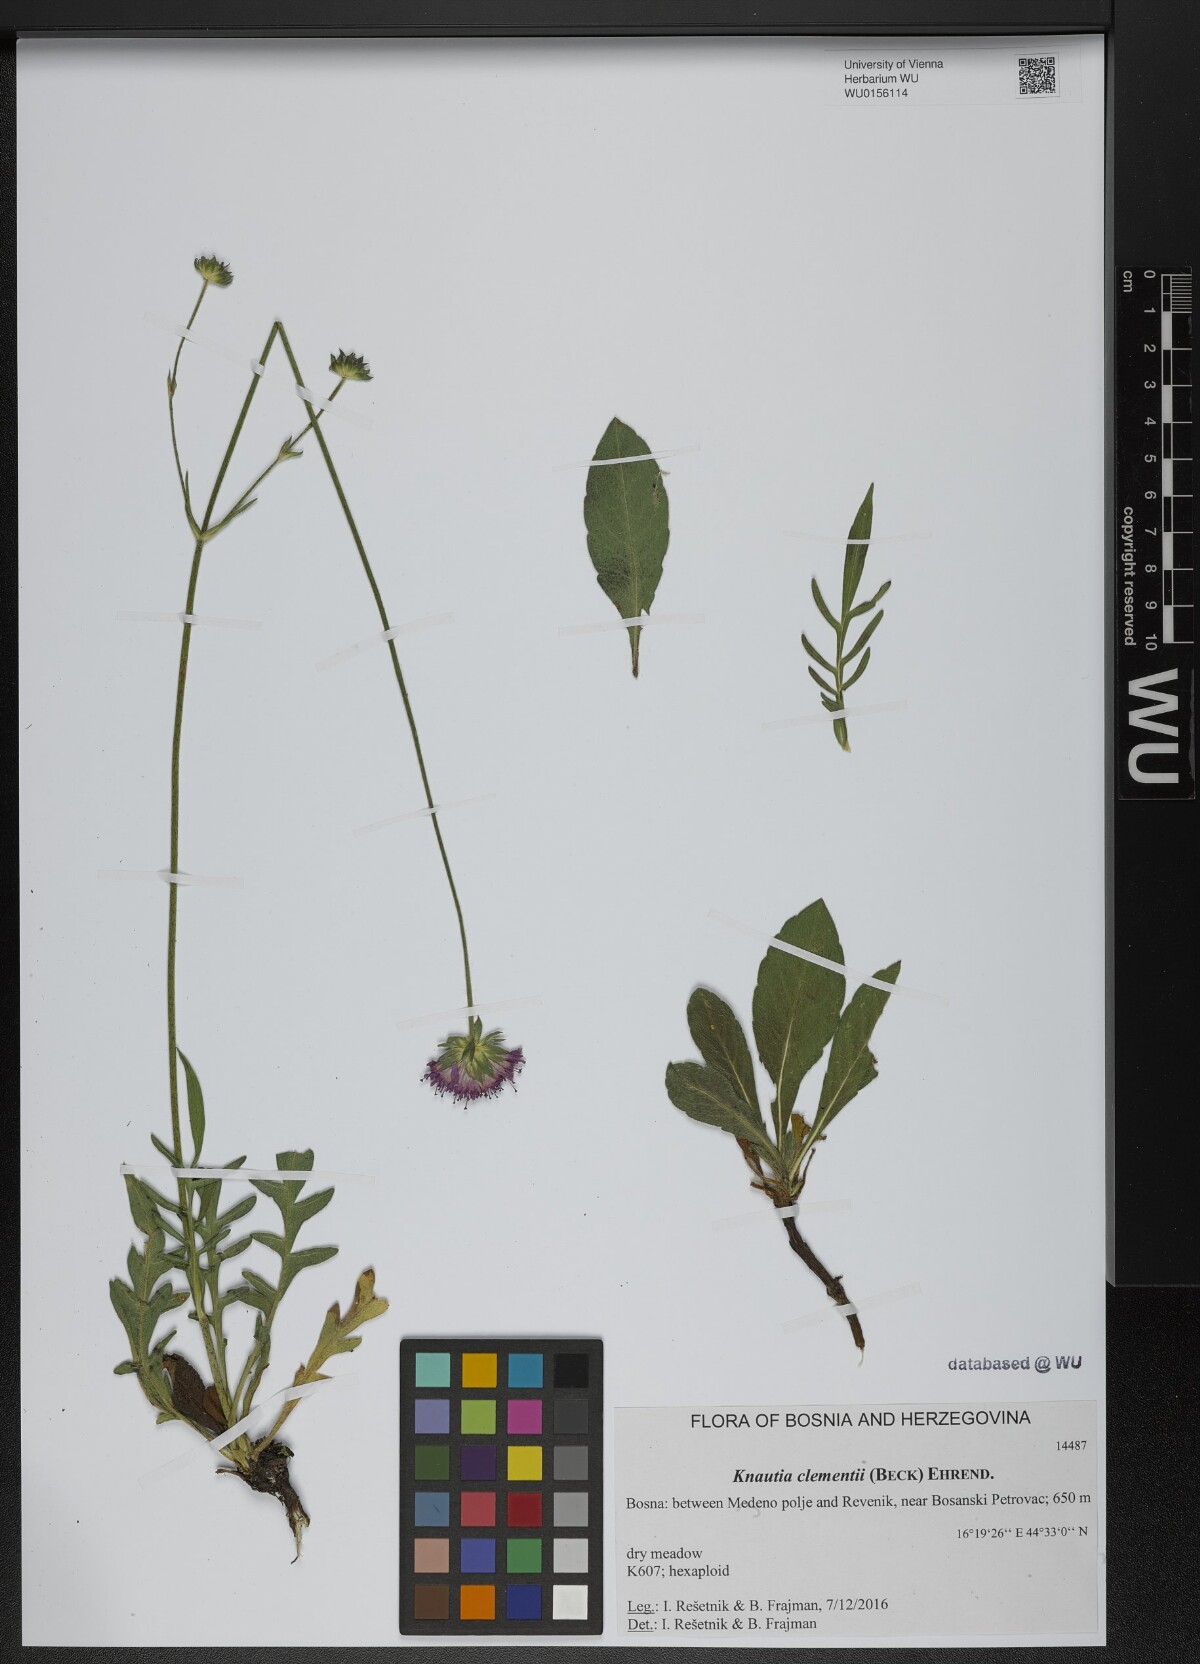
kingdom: Plantae
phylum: Tracheophyta
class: Magnoliopsida
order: Dipsacales
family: Caprifoliaceae
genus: Knautia
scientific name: Knautia clementii
